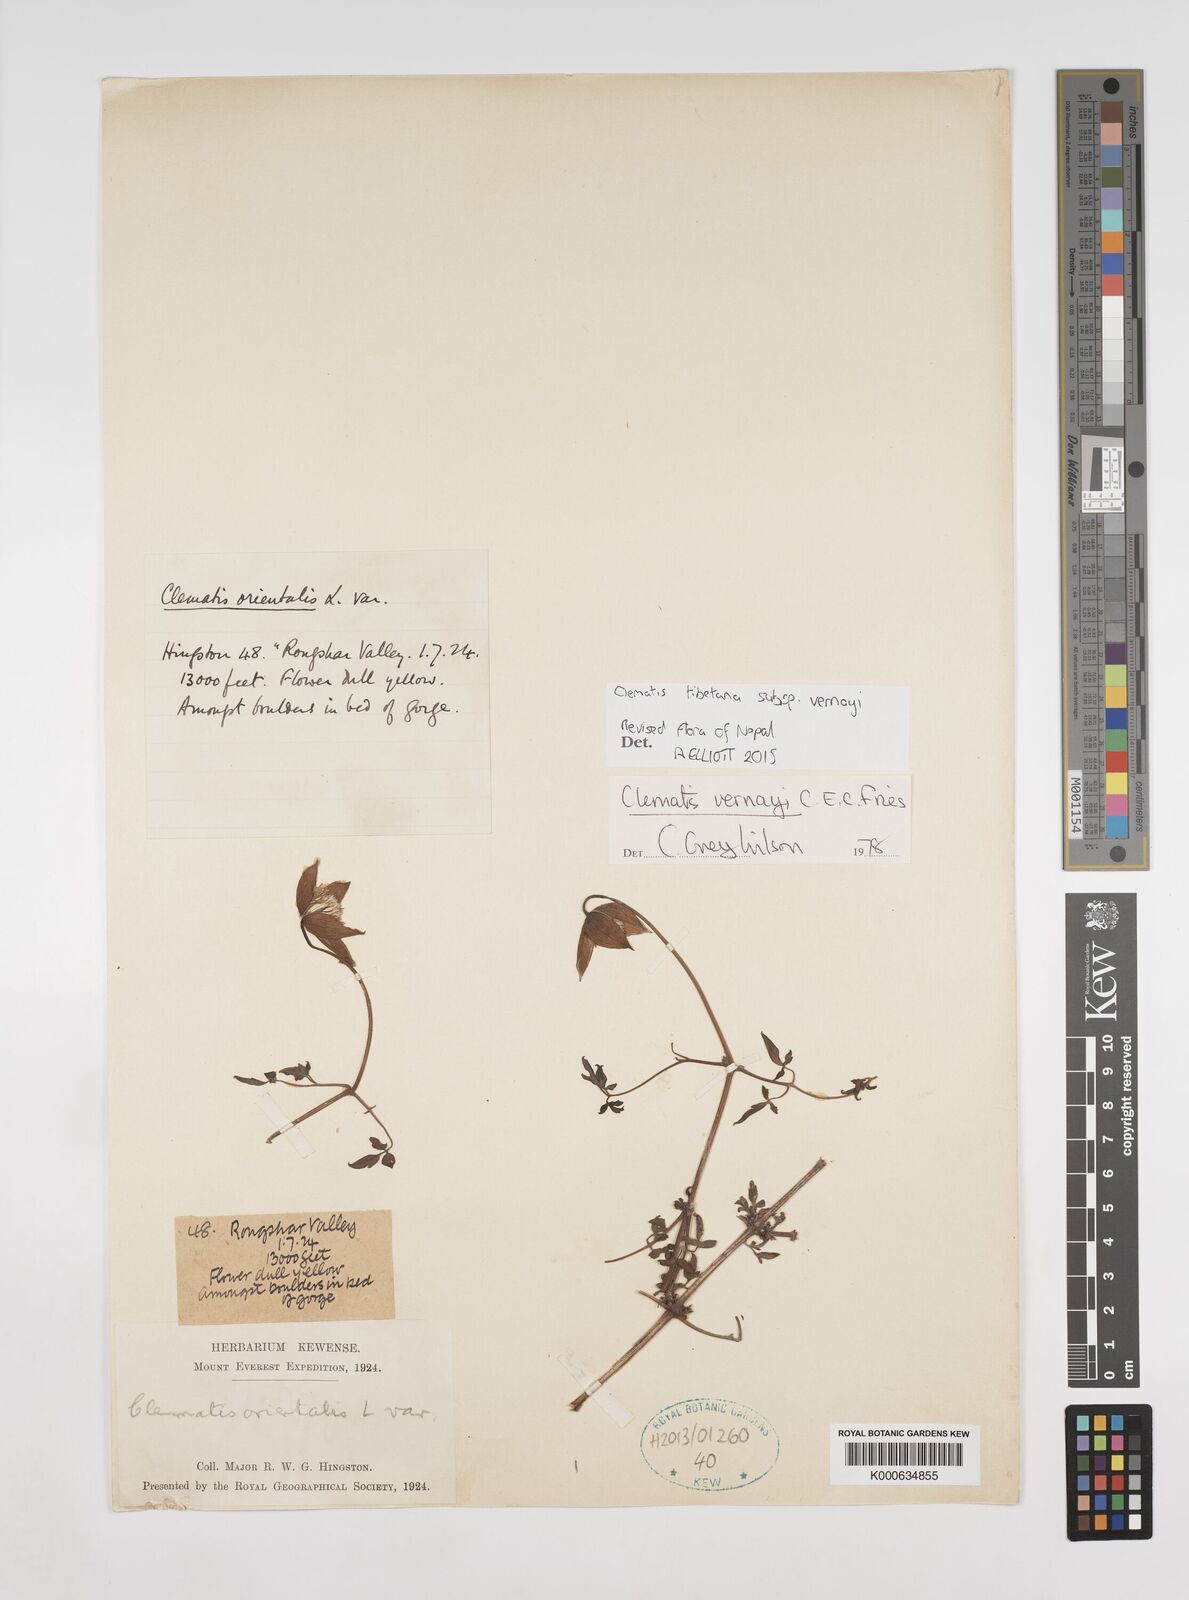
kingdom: Plantae
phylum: Tracheophyta
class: Magnoliopsida
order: Ranunculales
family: Ranunculaceae
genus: Clematis
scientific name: Clematis tibetana
